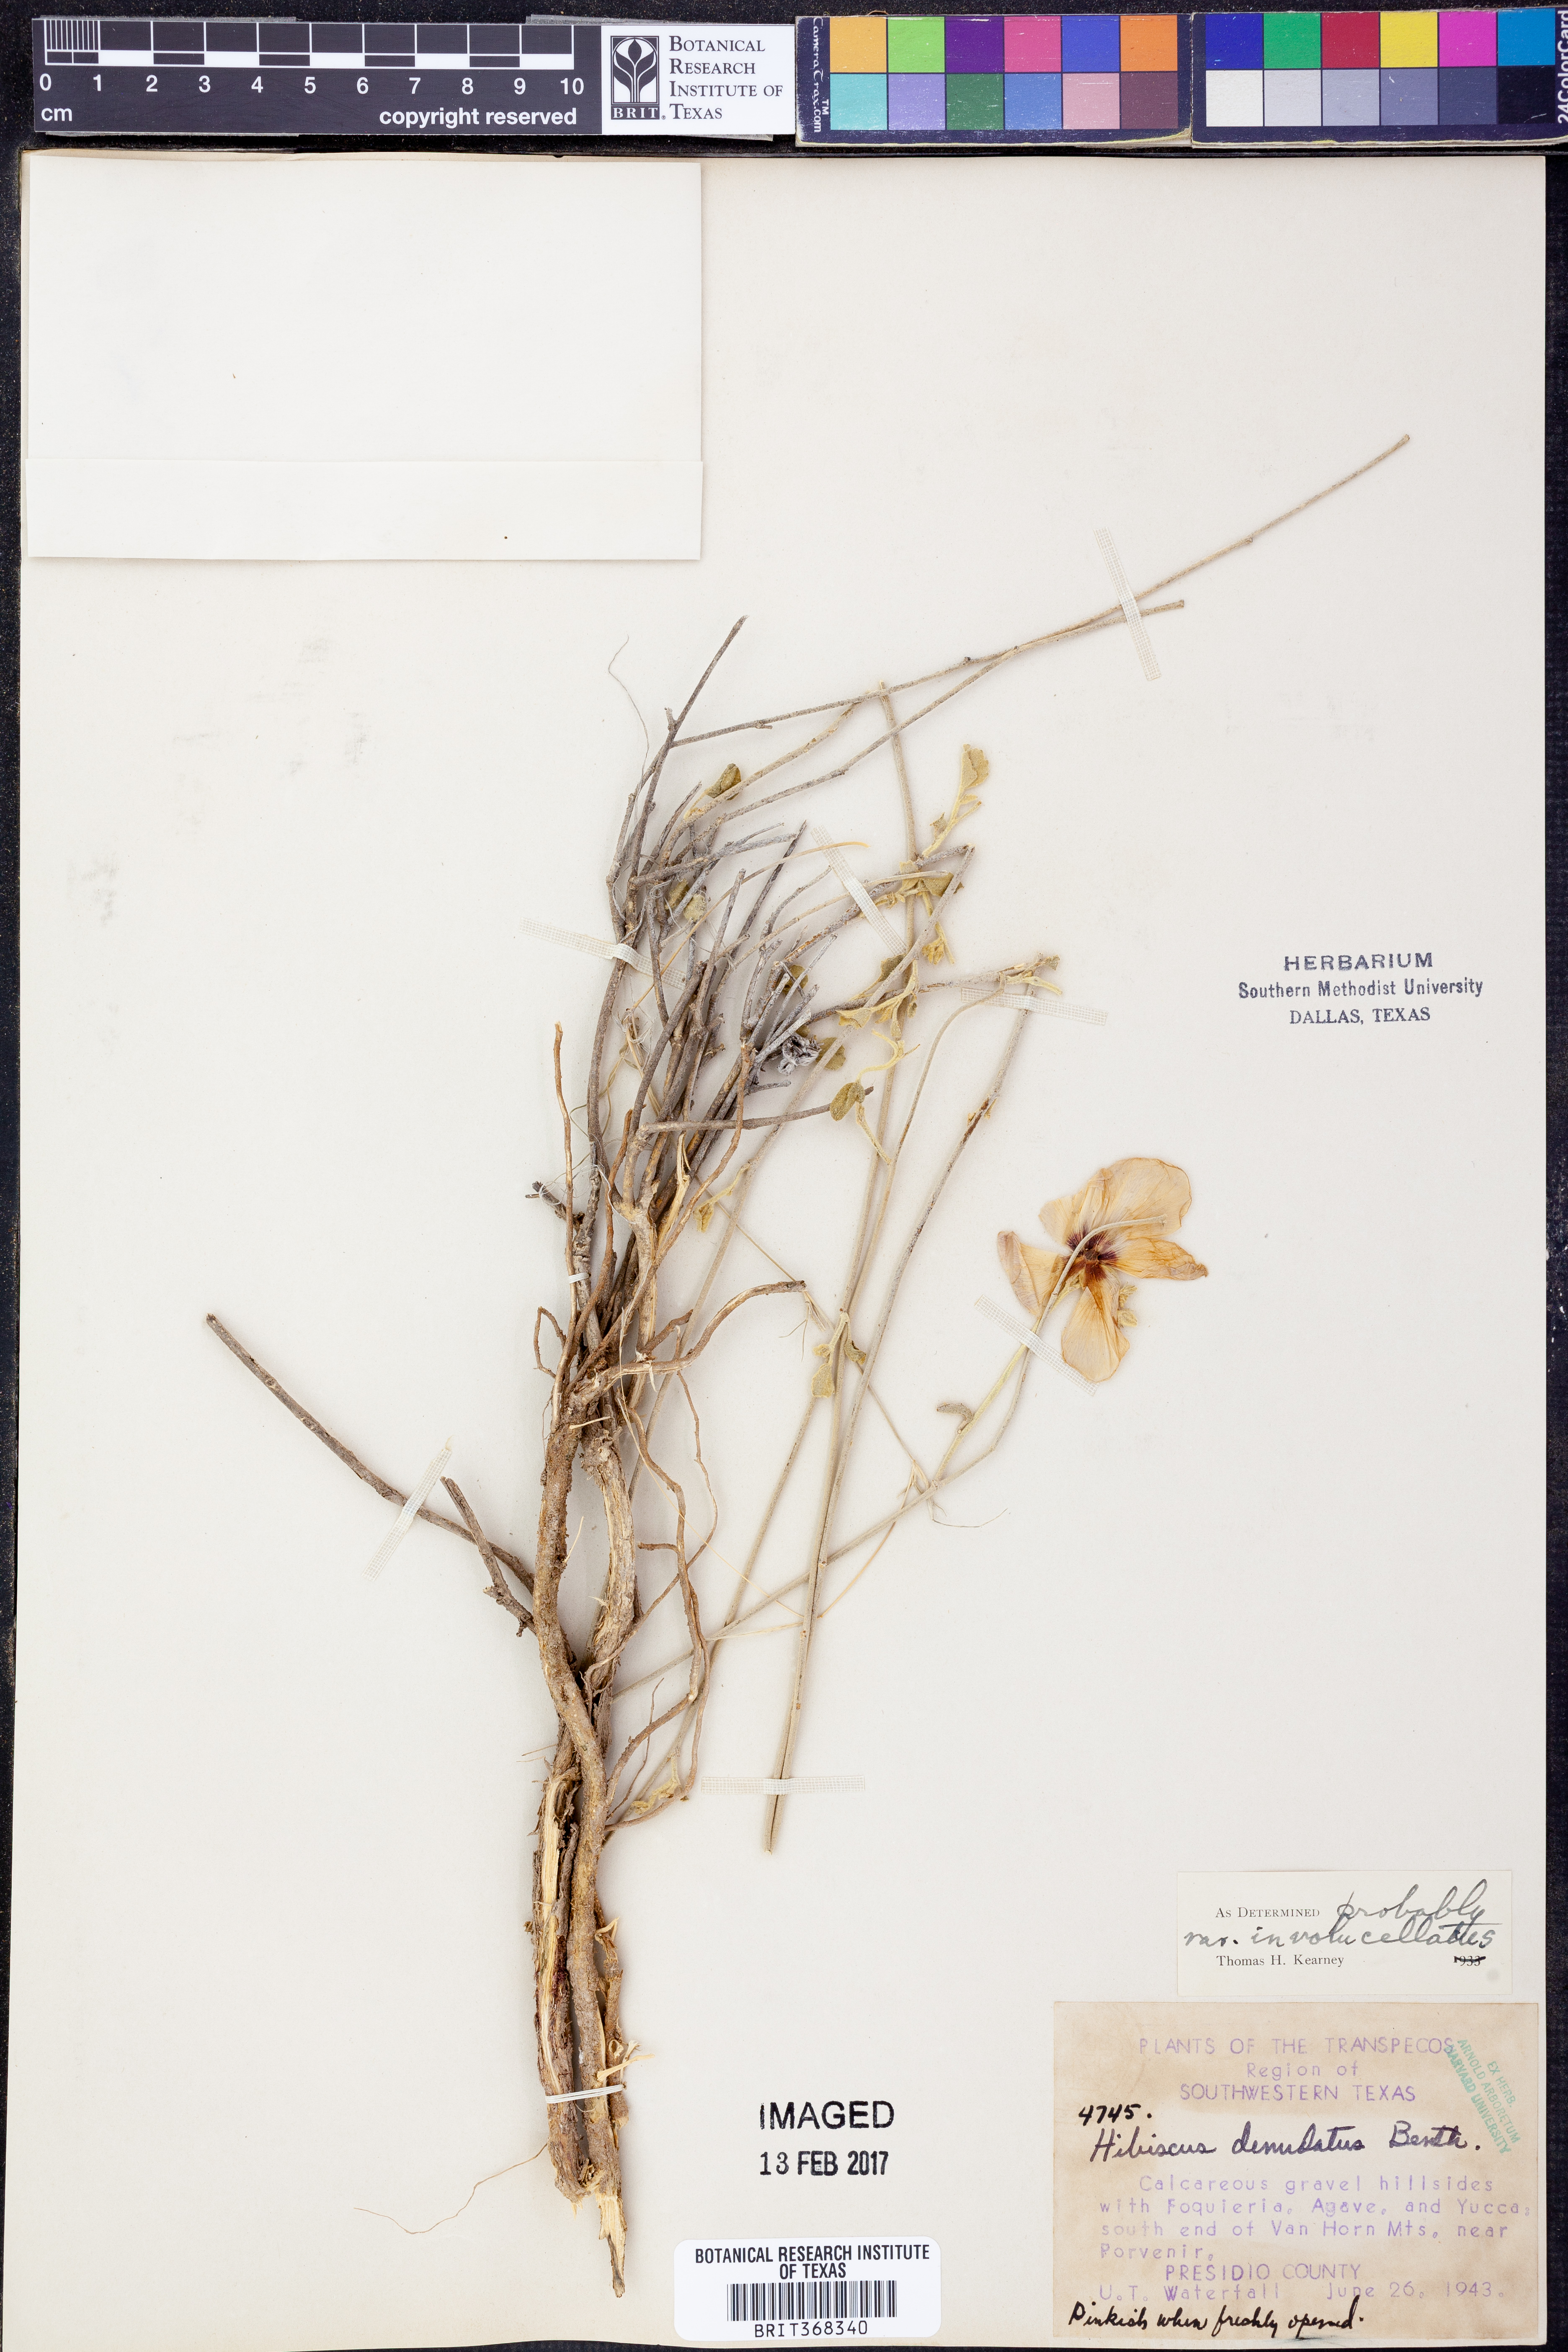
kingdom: Plantae
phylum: Tracheophyta
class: Magnoliopsida
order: Malvales
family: Malvaceae
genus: Hibiscus
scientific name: Hibiscus denudatus
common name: Paleface
